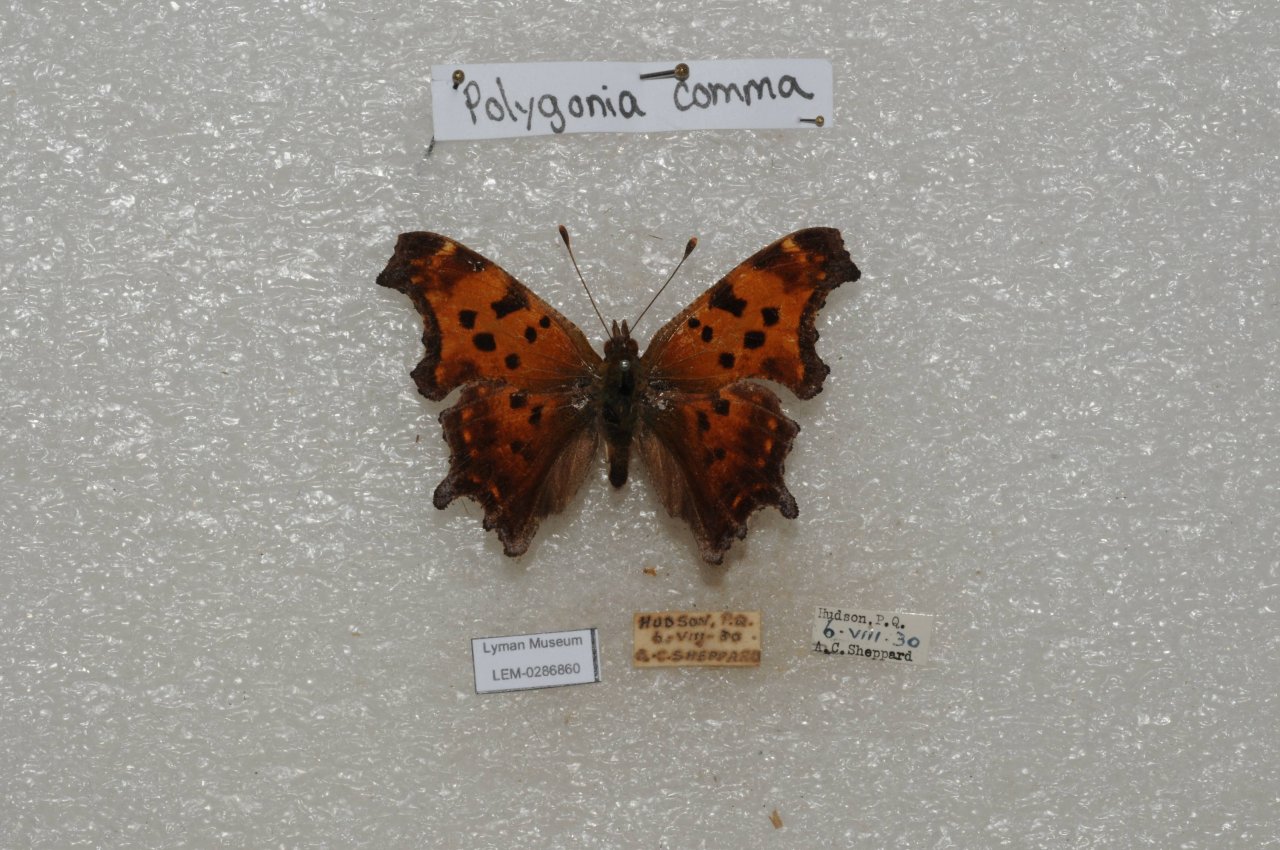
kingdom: Animalia
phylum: Arthropoda
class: Insecta
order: Lepidoptera
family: Nymphalidae
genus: Polygonia
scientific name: Polygonia comma
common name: Eastern Comma
